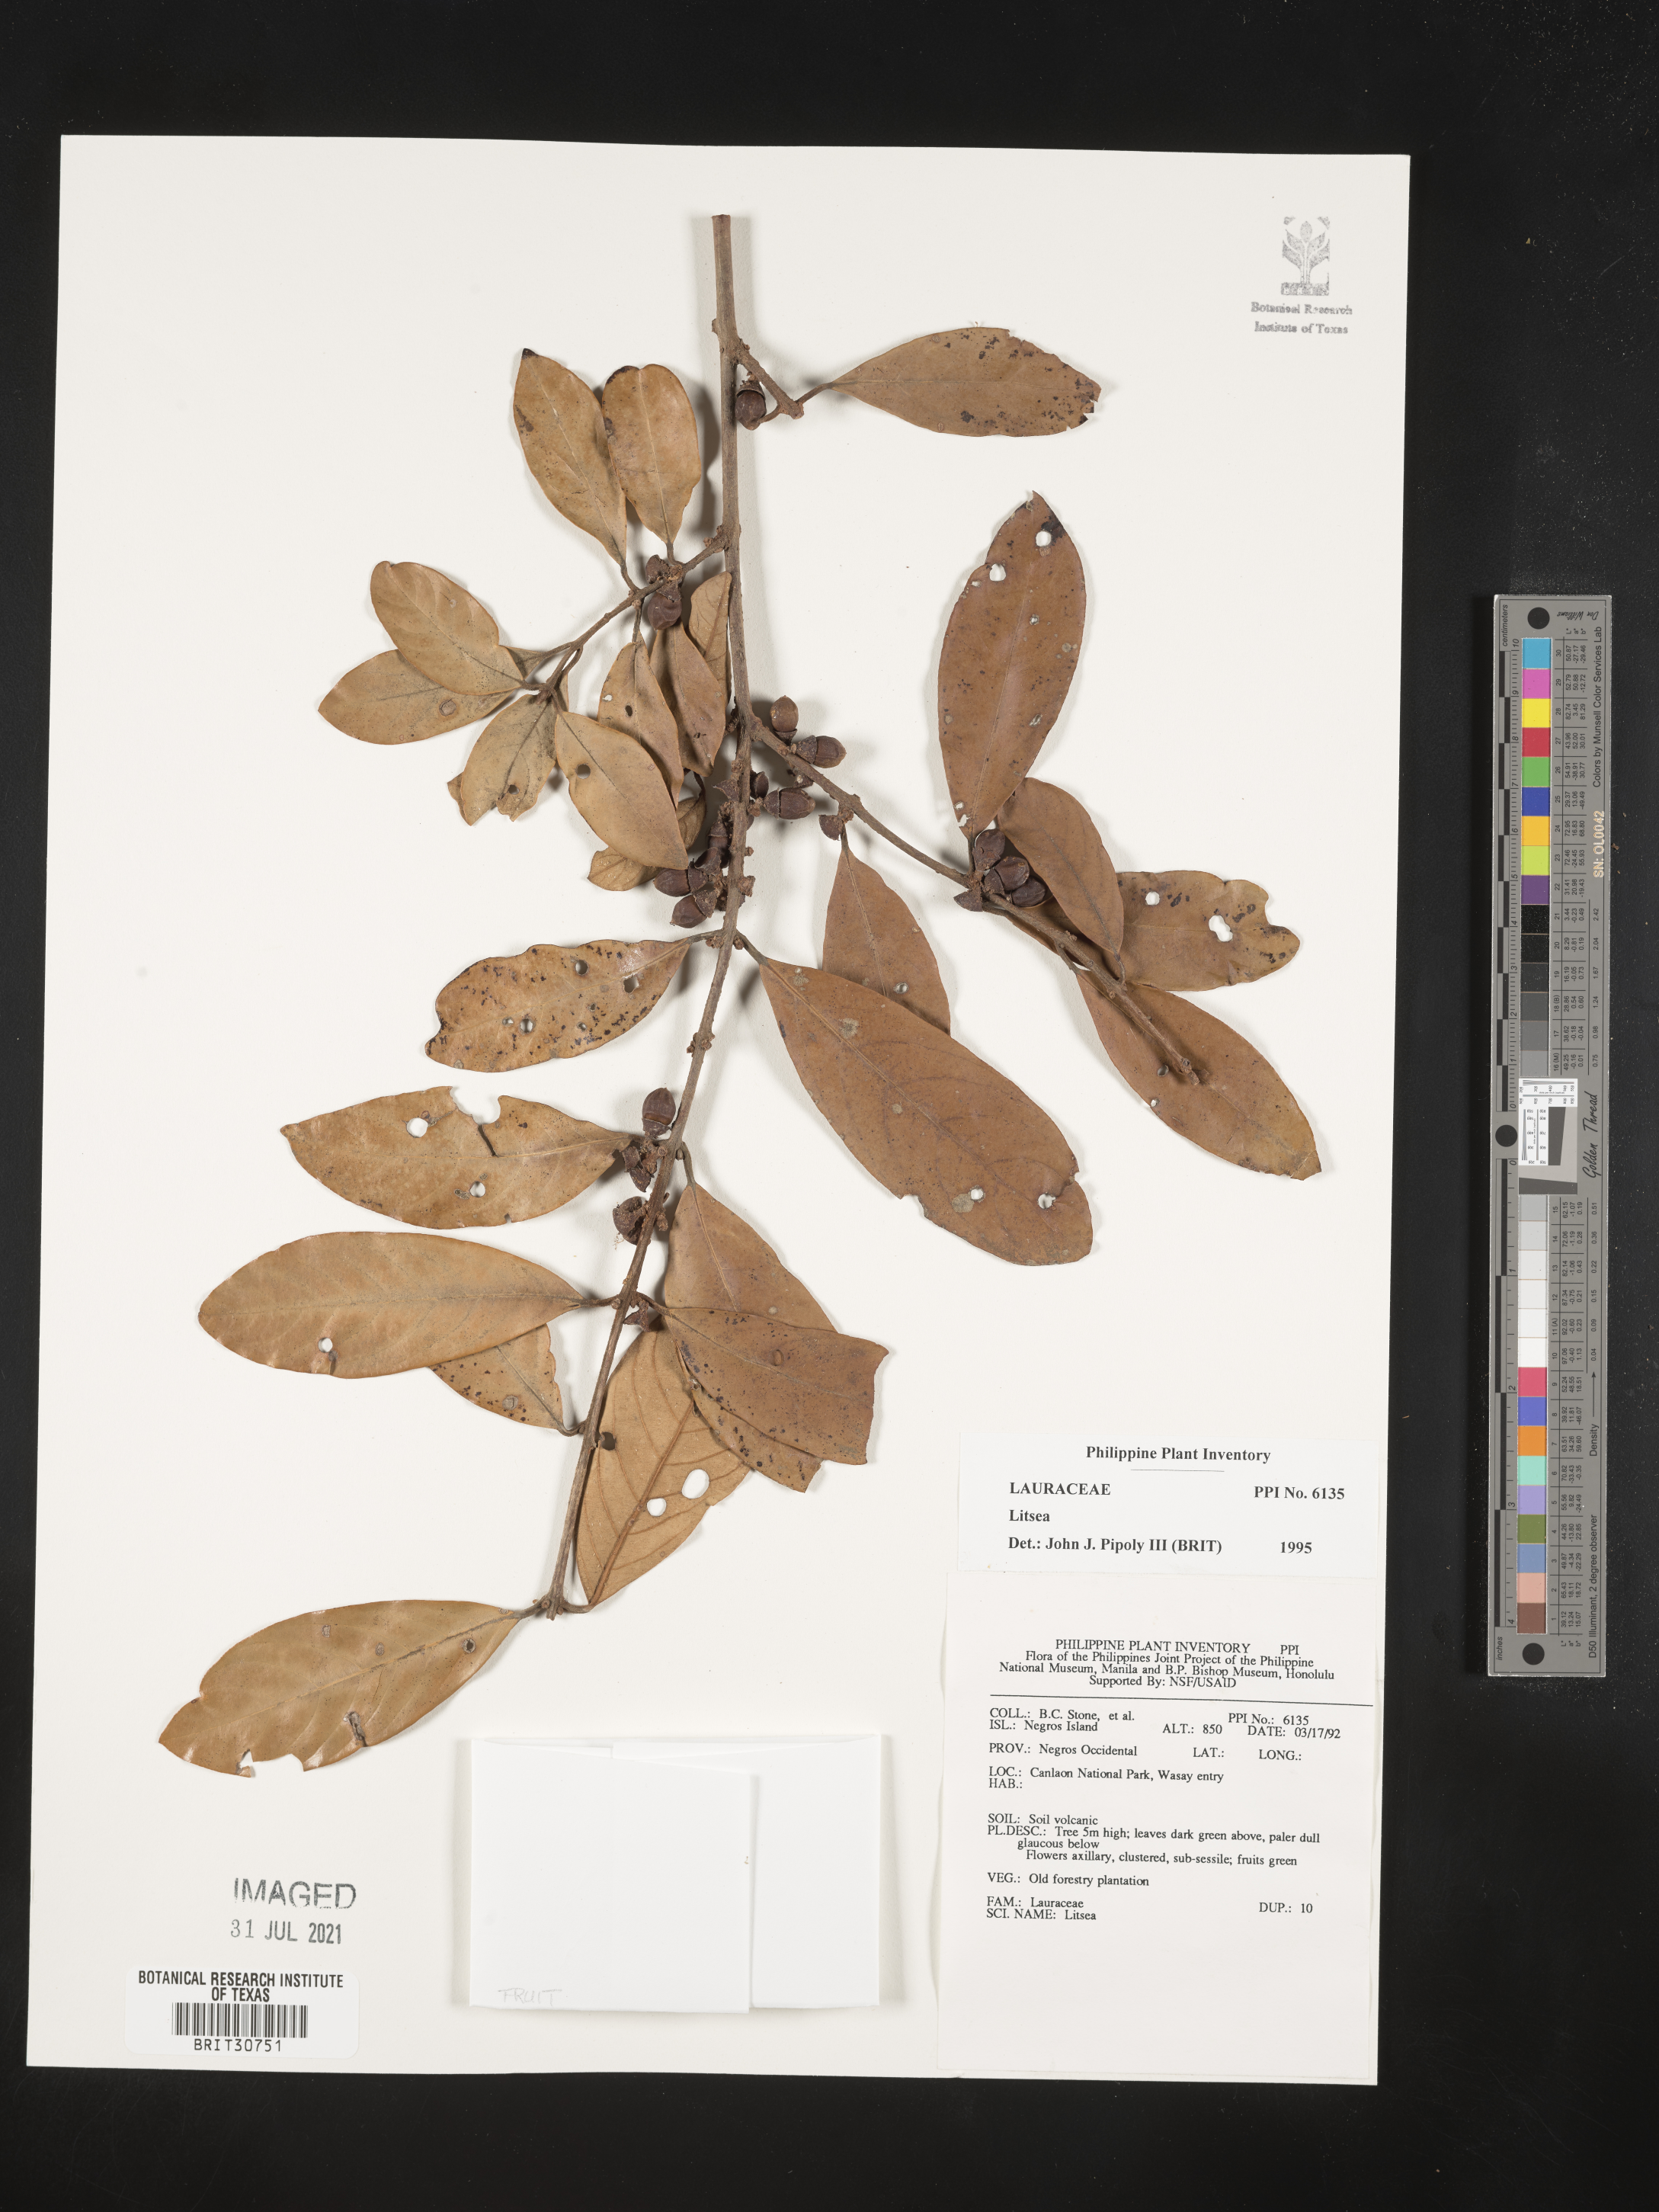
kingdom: Plantae
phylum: Tracheophyta
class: Magnoliopsida
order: Laurales
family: Lauraceae
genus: Litsea
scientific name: Litsea
